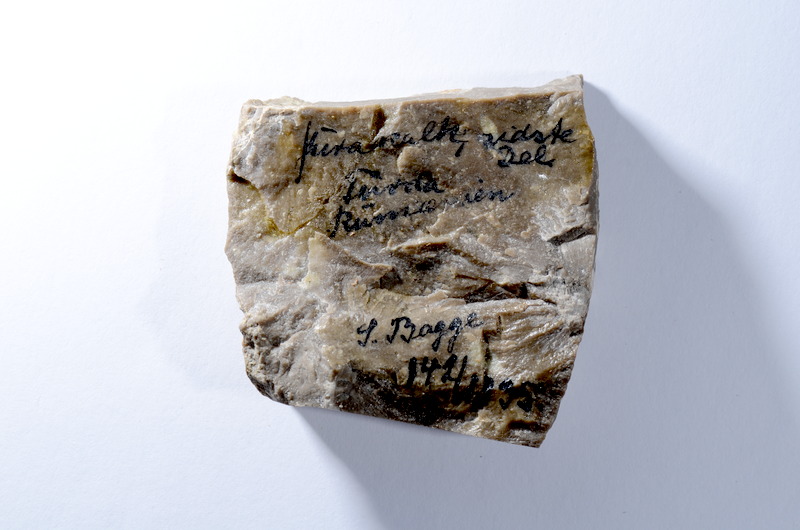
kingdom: Animalia
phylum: Chordata
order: Lepisosteiformes
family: Lepidotidae
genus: Lepidotes
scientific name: Lepidotes
